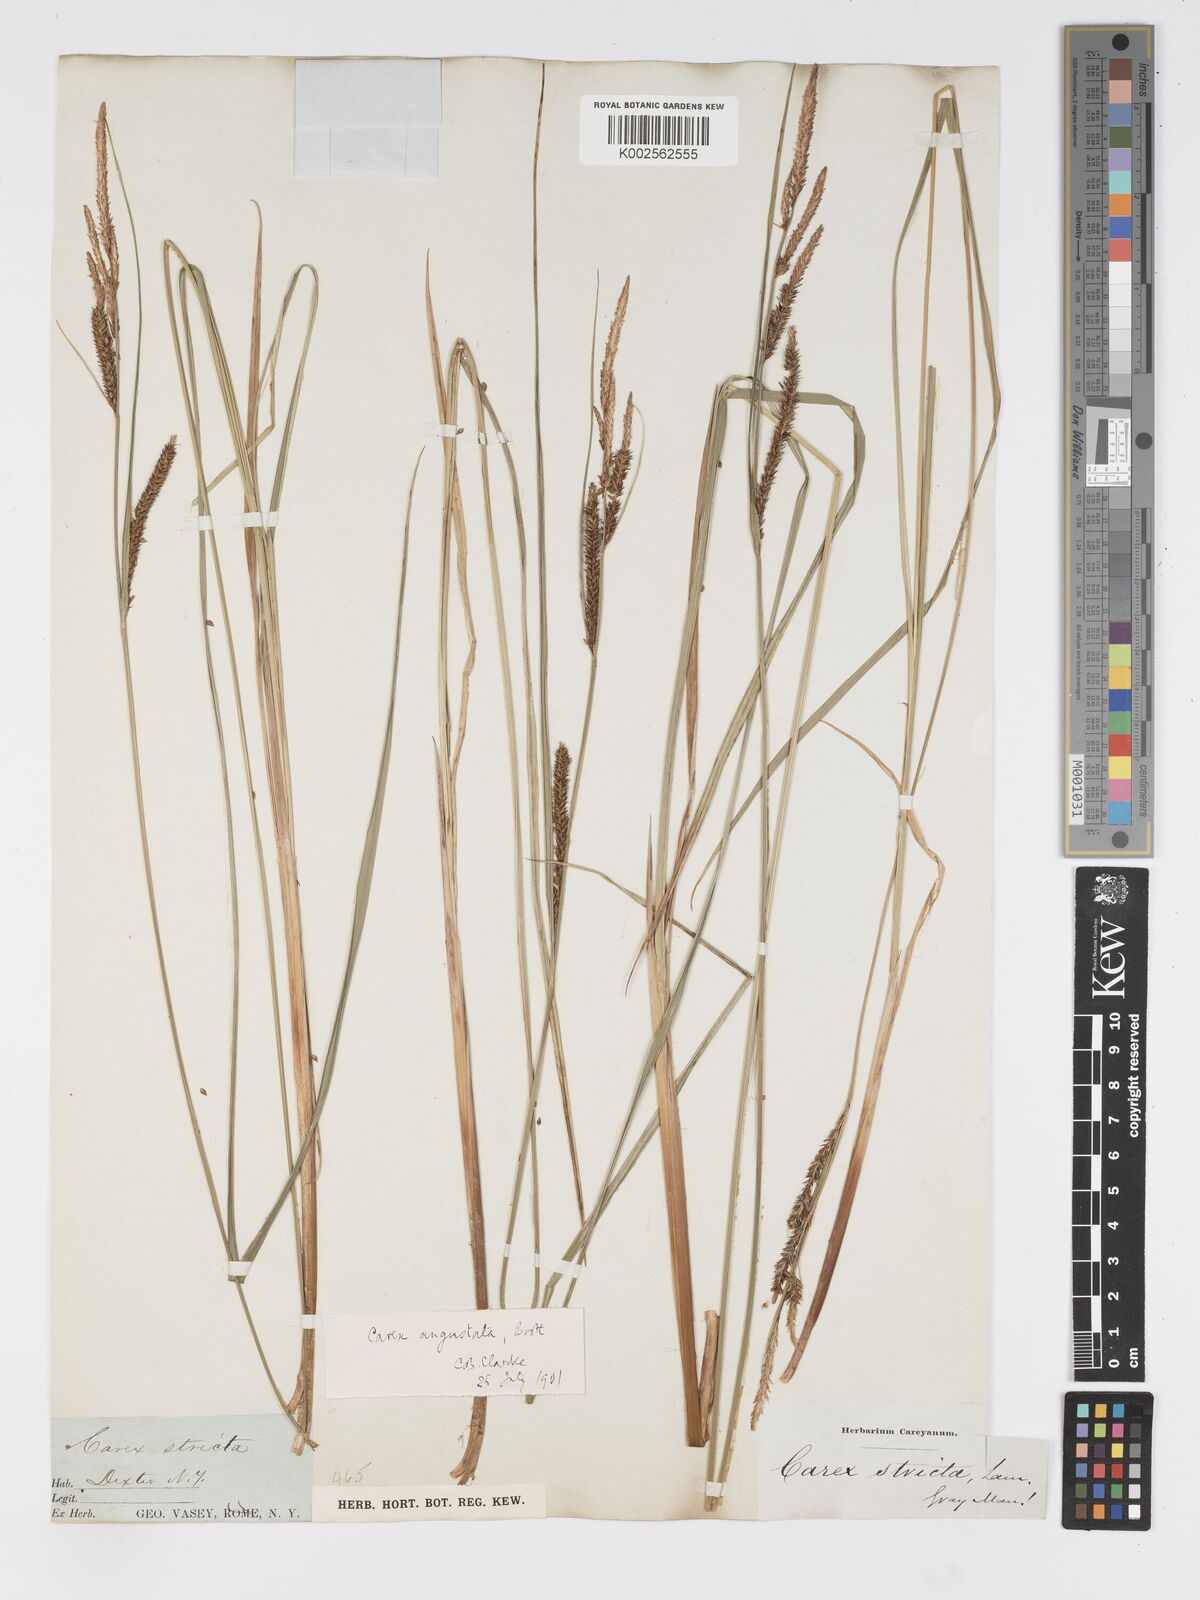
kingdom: Plantae
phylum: Tracheophyta
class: Liliopsida
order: Poales
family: Cyperaceae
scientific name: Cyperaceae
